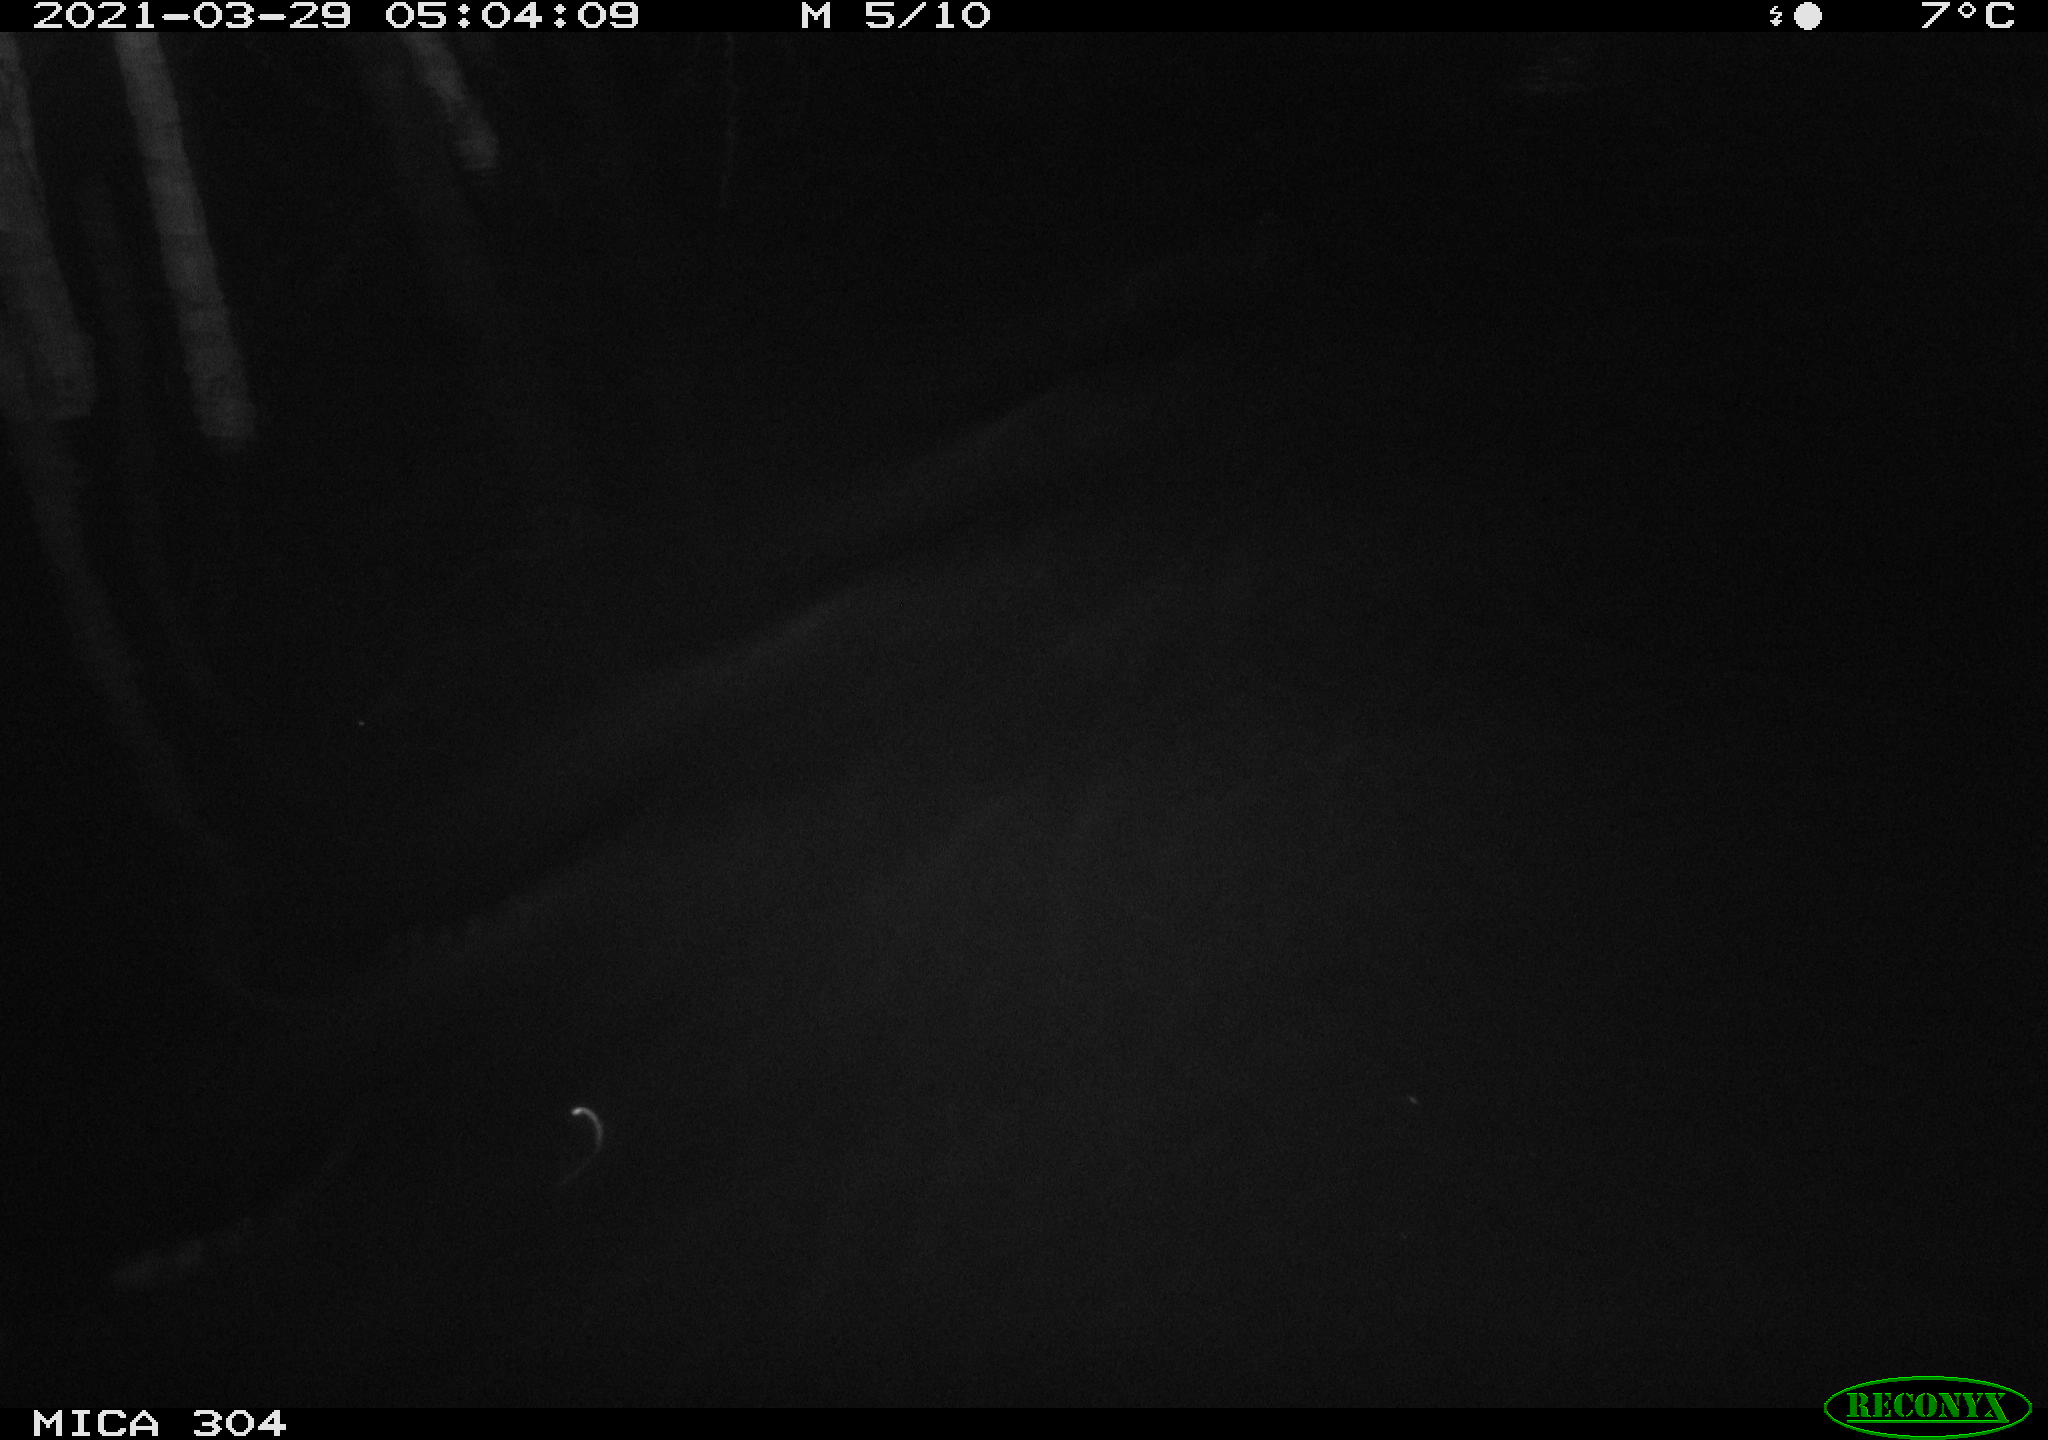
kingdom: Animalia
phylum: Chordata
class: Aves
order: Anseriformes
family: Anatidae
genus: Anas
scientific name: Anas platyrhynchos
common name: Mallard
